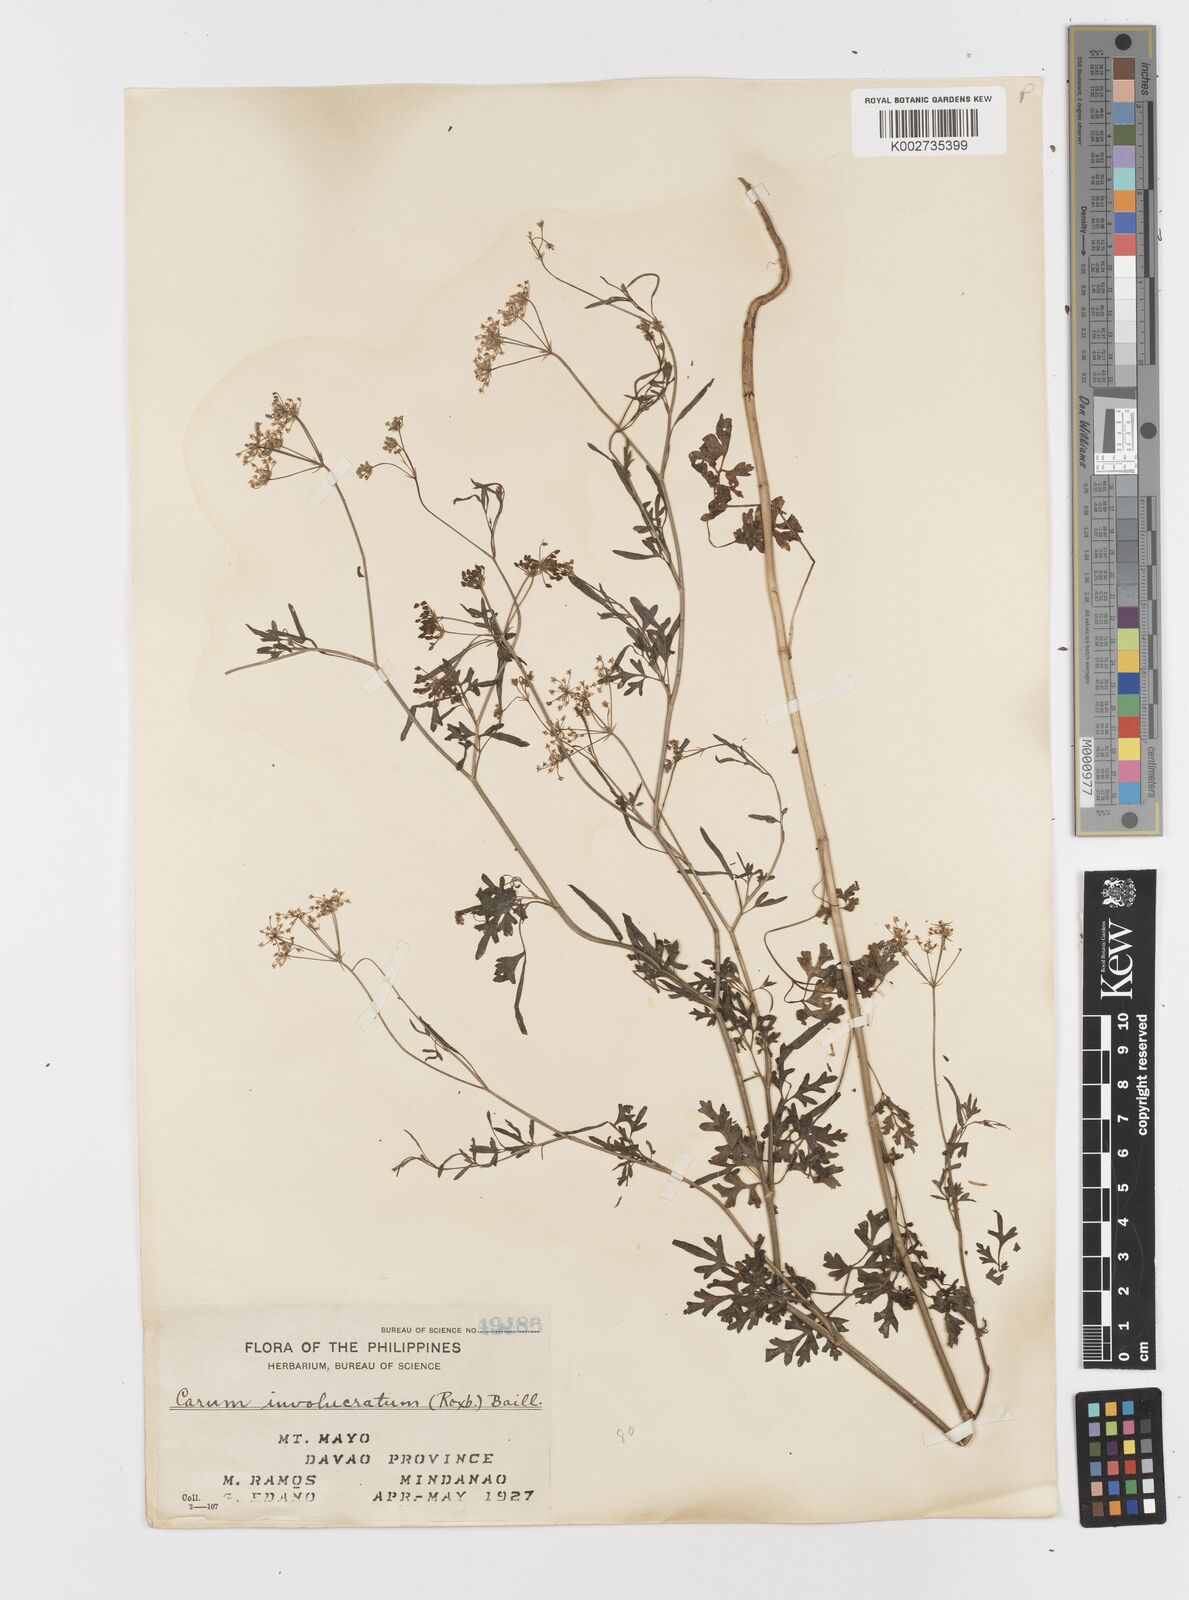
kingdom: Plantae
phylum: Tracheophyta
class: Magnoliopsida
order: Apiales
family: Apiaceae
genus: Psammogeton
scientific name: Psammogeton involucratum
